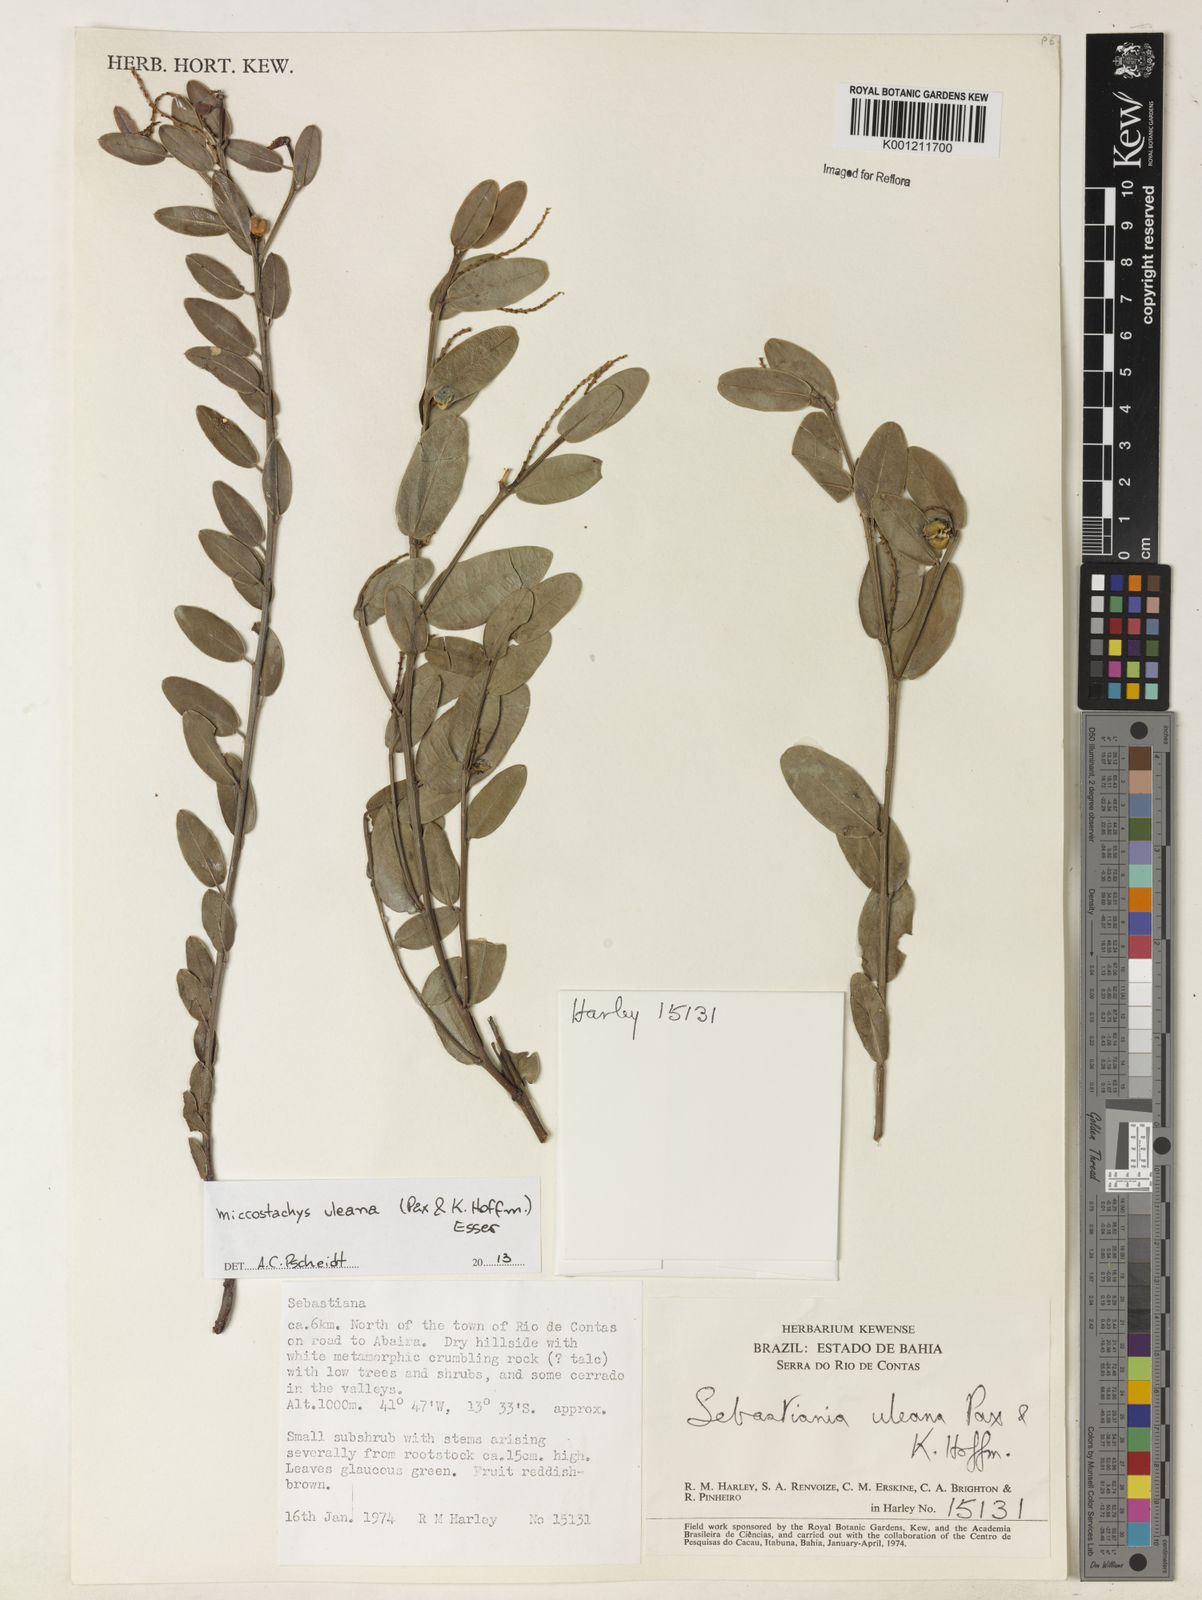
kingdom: Plantae
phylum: Tracheophyta
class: Magnoliopsida
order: Malpighiales
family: Euphorbiaceae
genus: Microstachys
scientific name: Microstachys uleana
